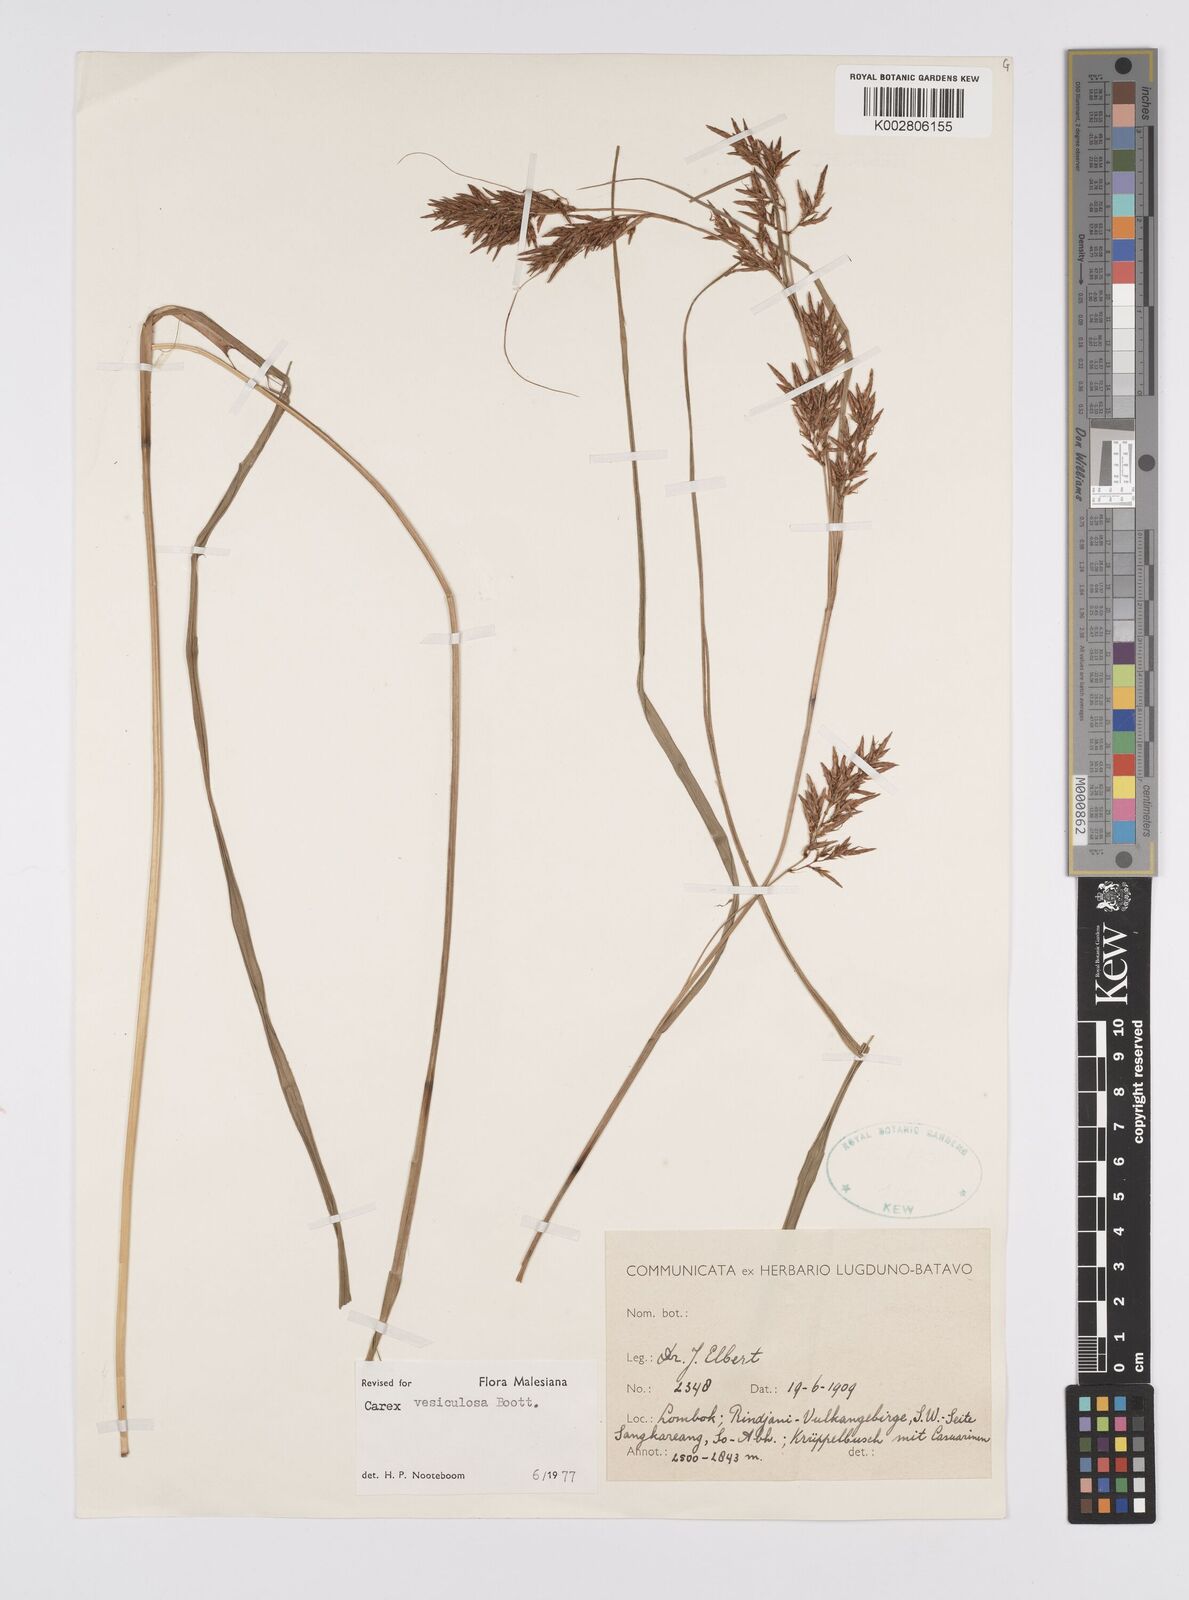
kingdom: Plantae
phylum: Tracheophyta
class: Liliopsida
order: Poales
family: Cyperaceae
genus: Carex
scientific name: Carex vesiculosa
